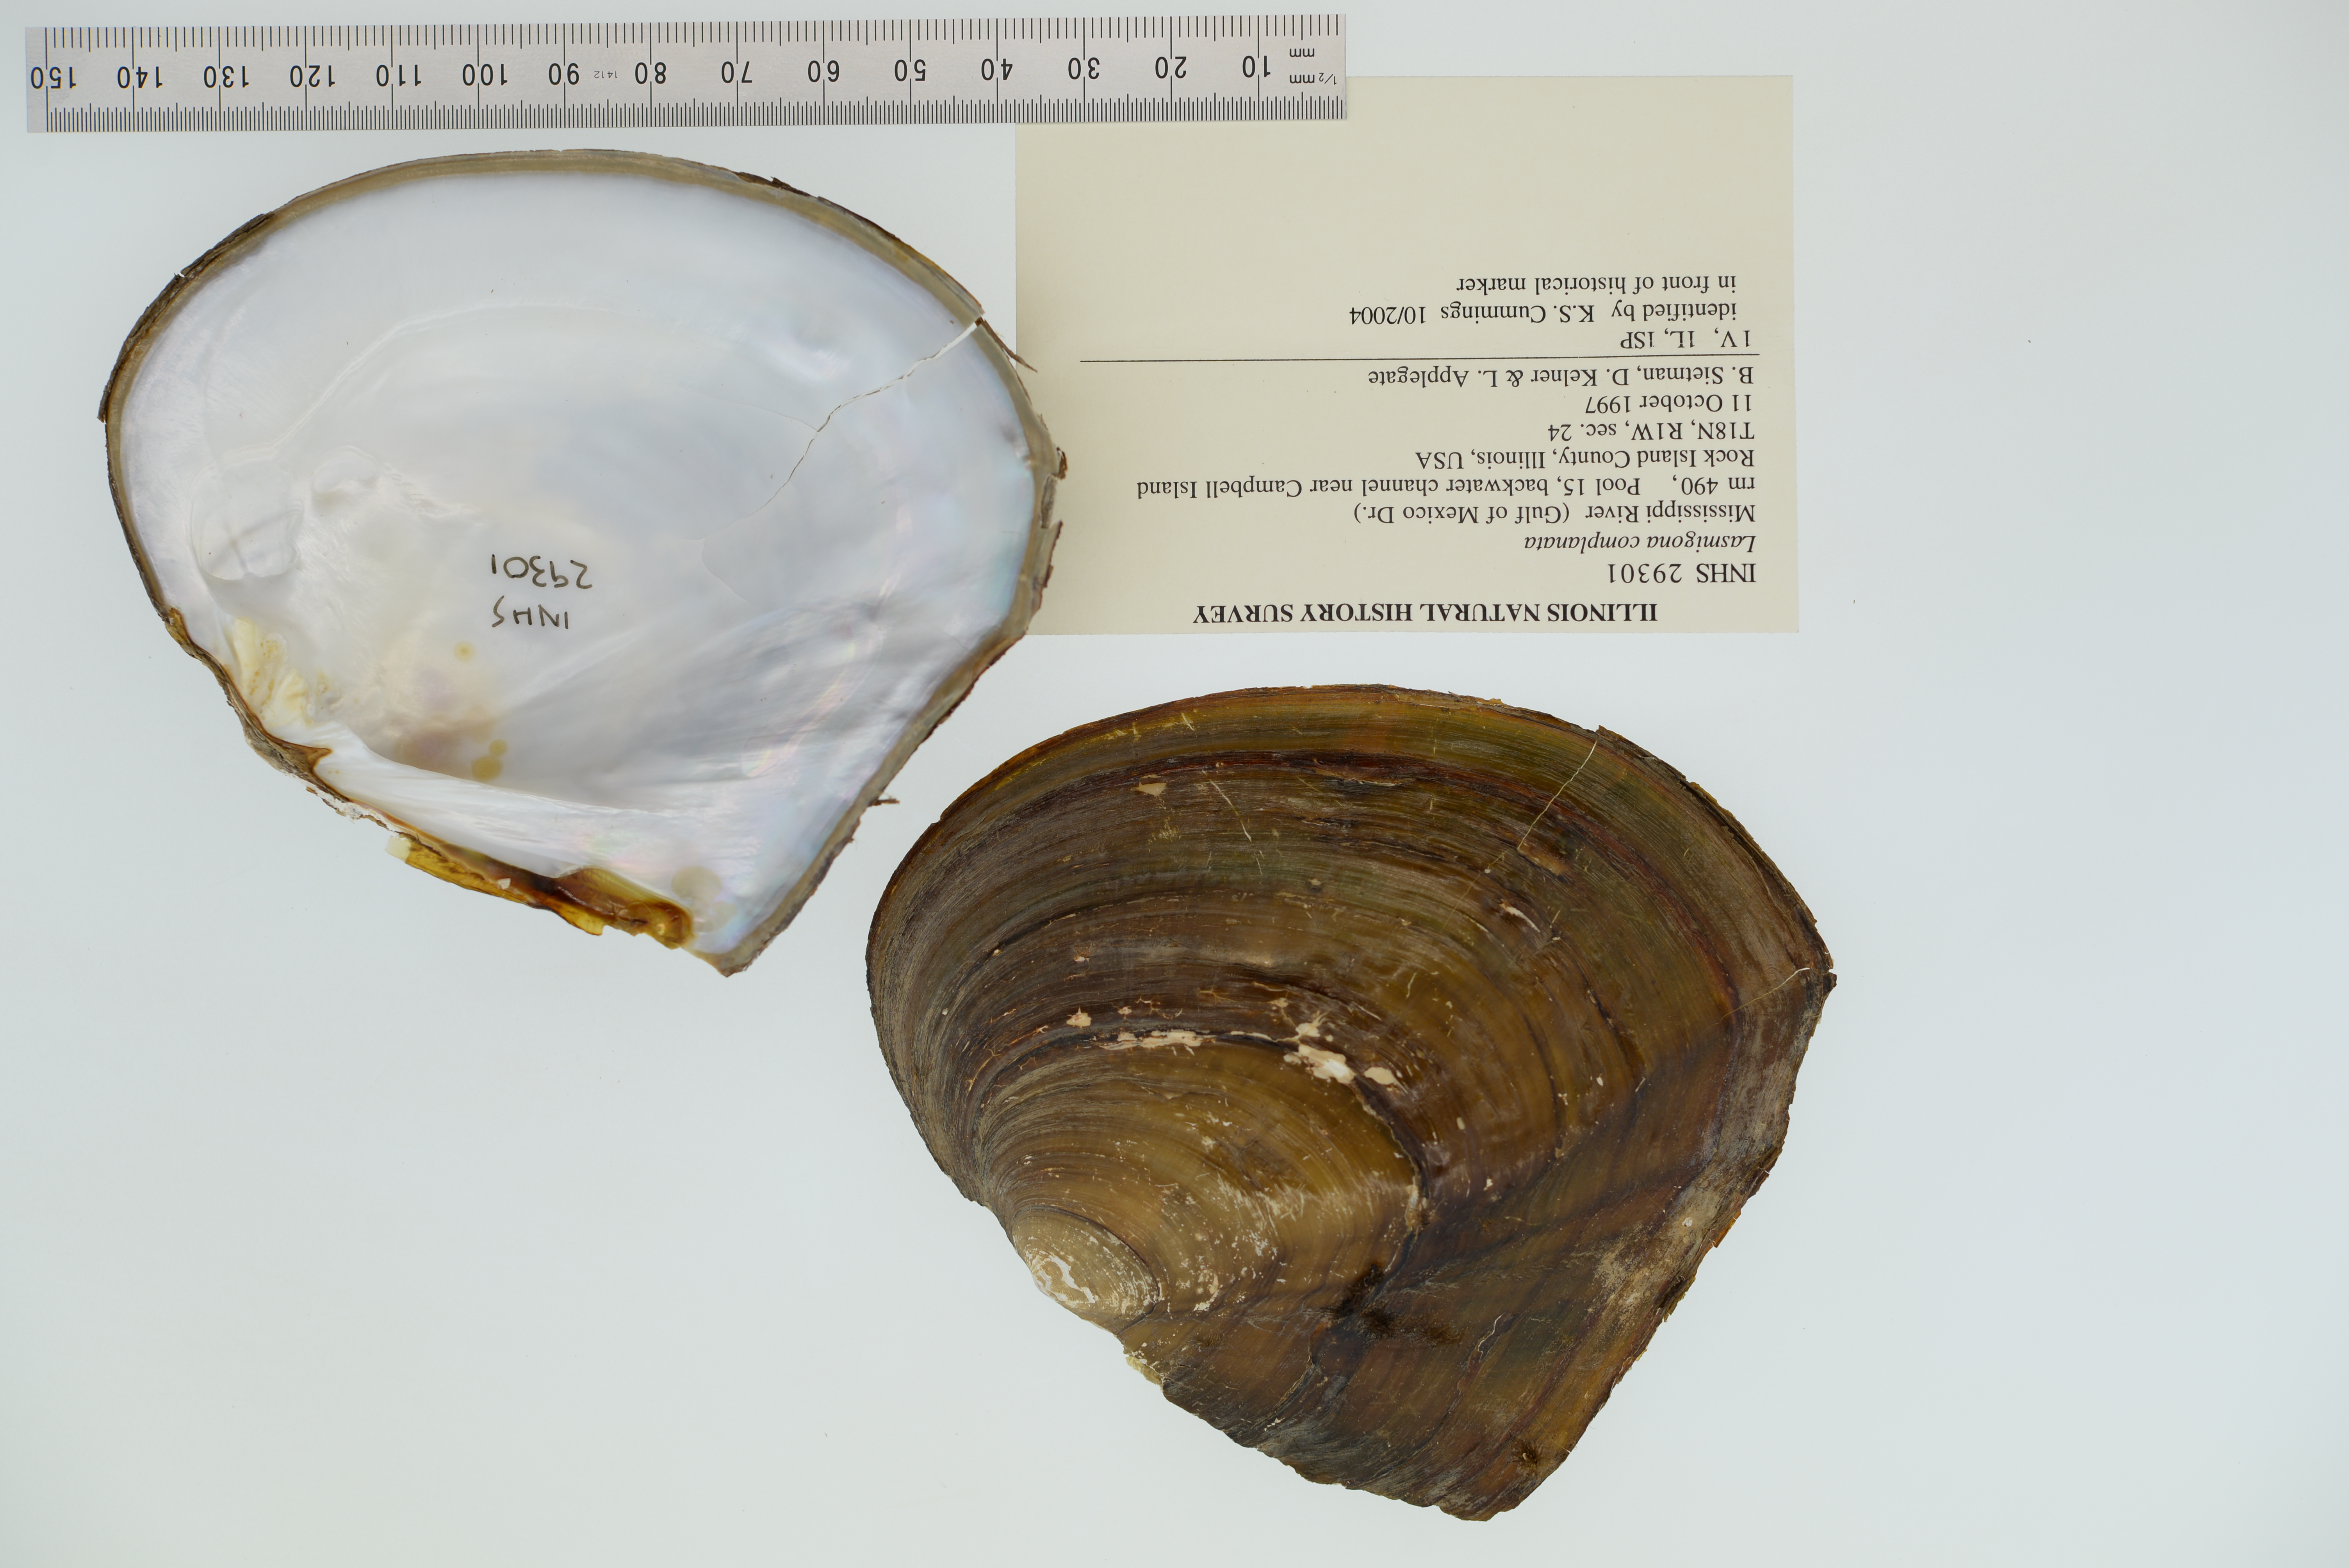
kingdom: Animalia
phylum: Mollusca
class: Bivalvia
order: Unionida
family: Unionidae
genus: Lasmigona
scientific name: Lasmigona complanata
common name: White heelsplitter
